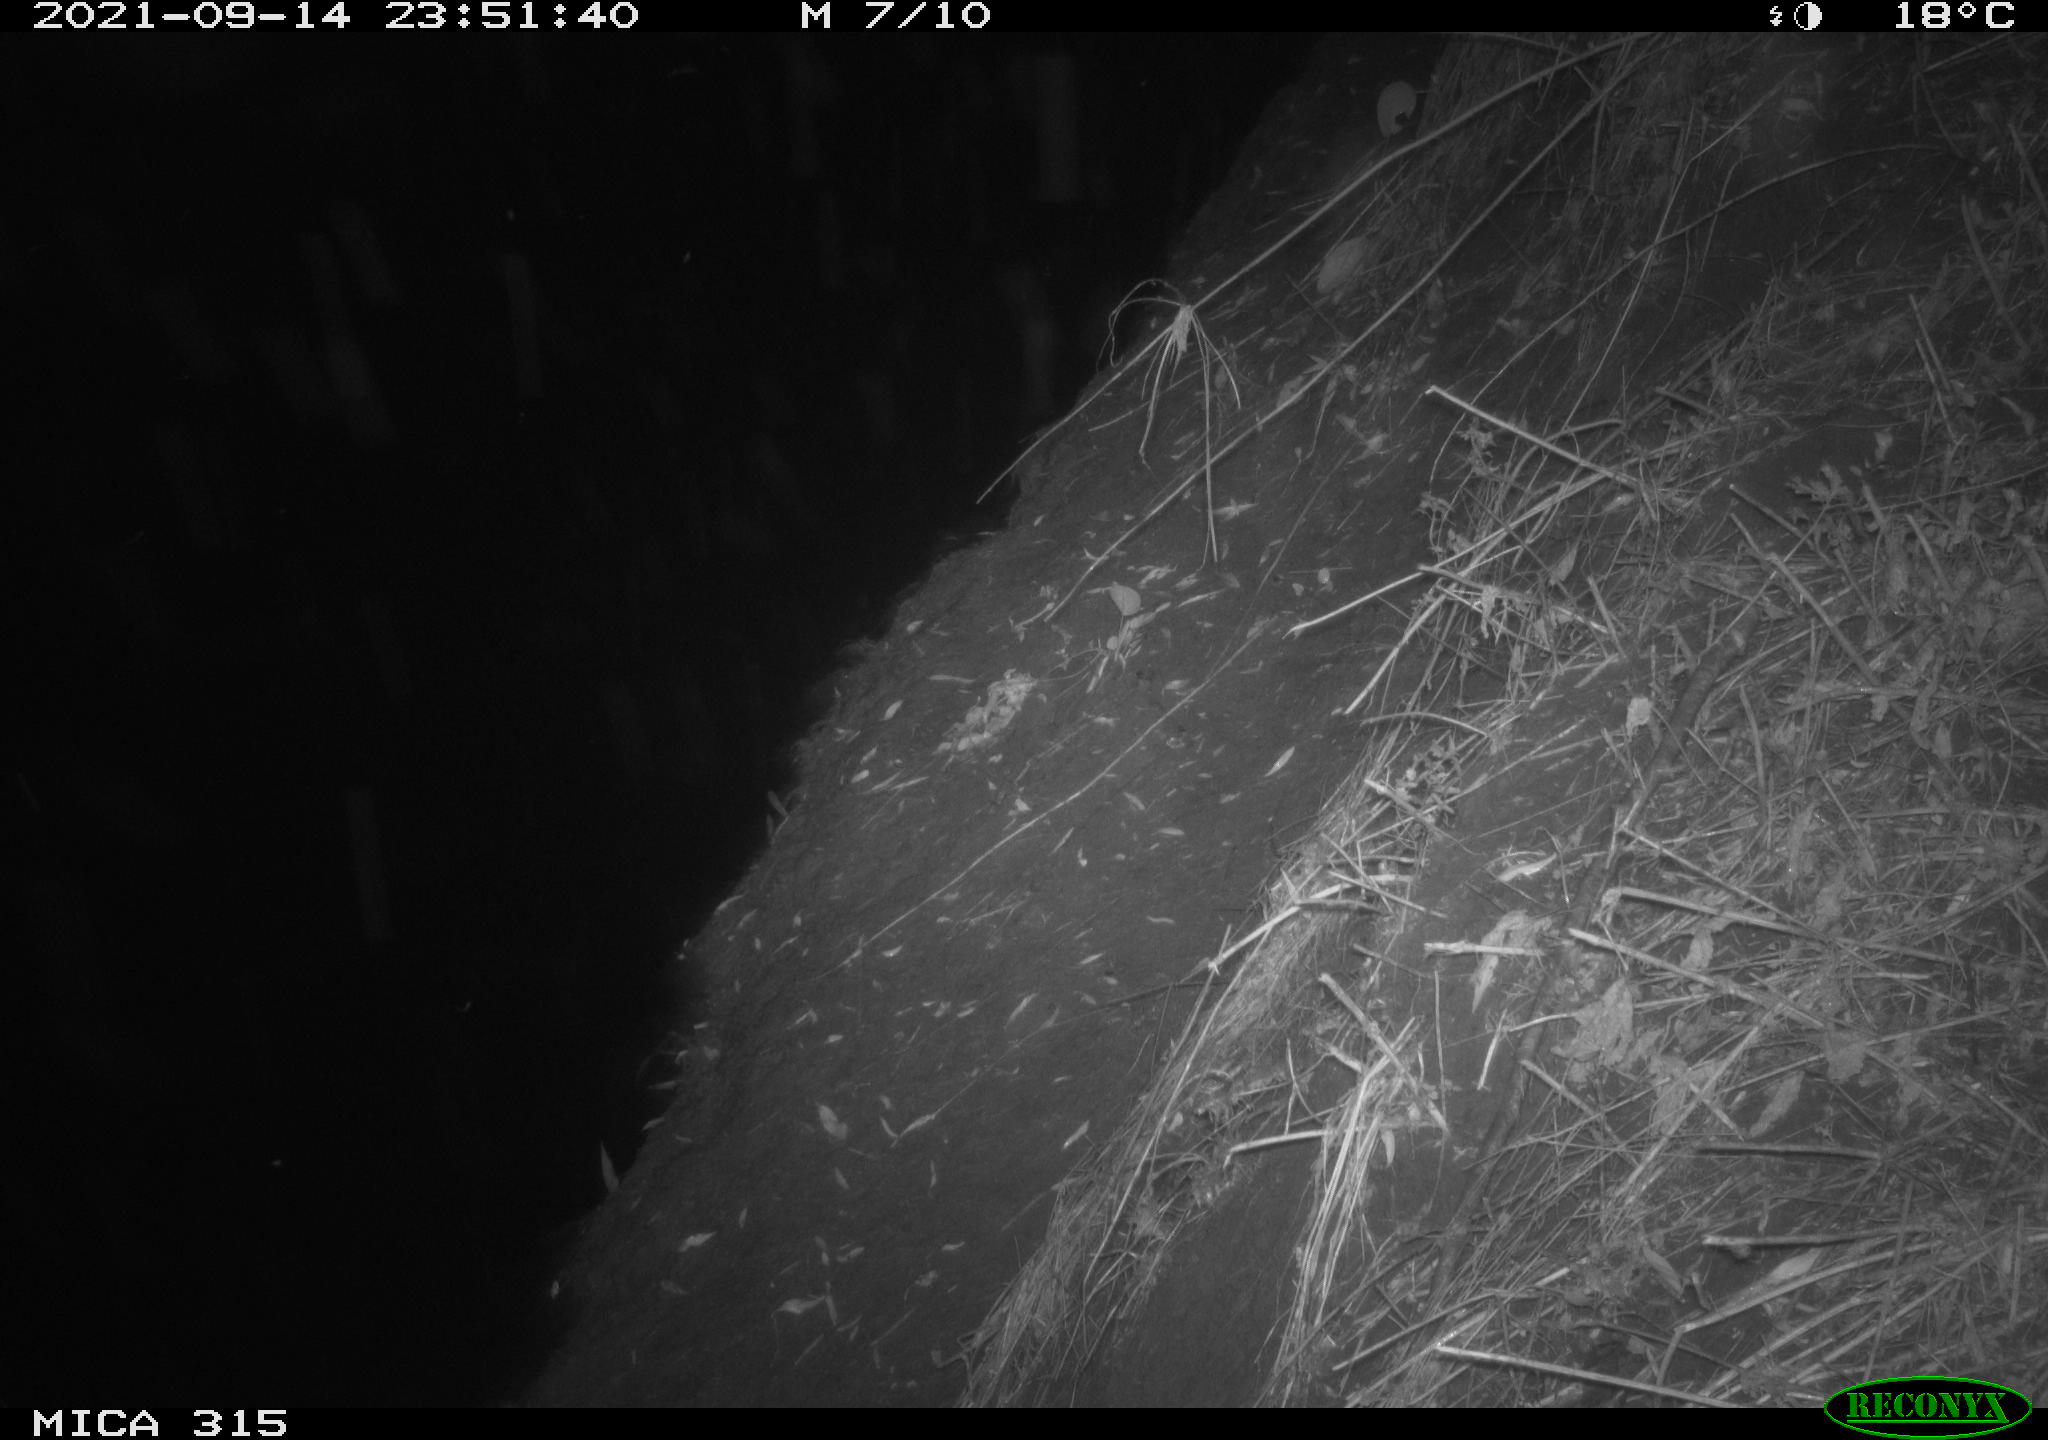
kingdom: Animalia
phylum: Chordata
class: Mammalia
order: Rodentia
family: Muridae
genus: Rattus
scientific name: Rattus norvegicus
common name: Brown rat
